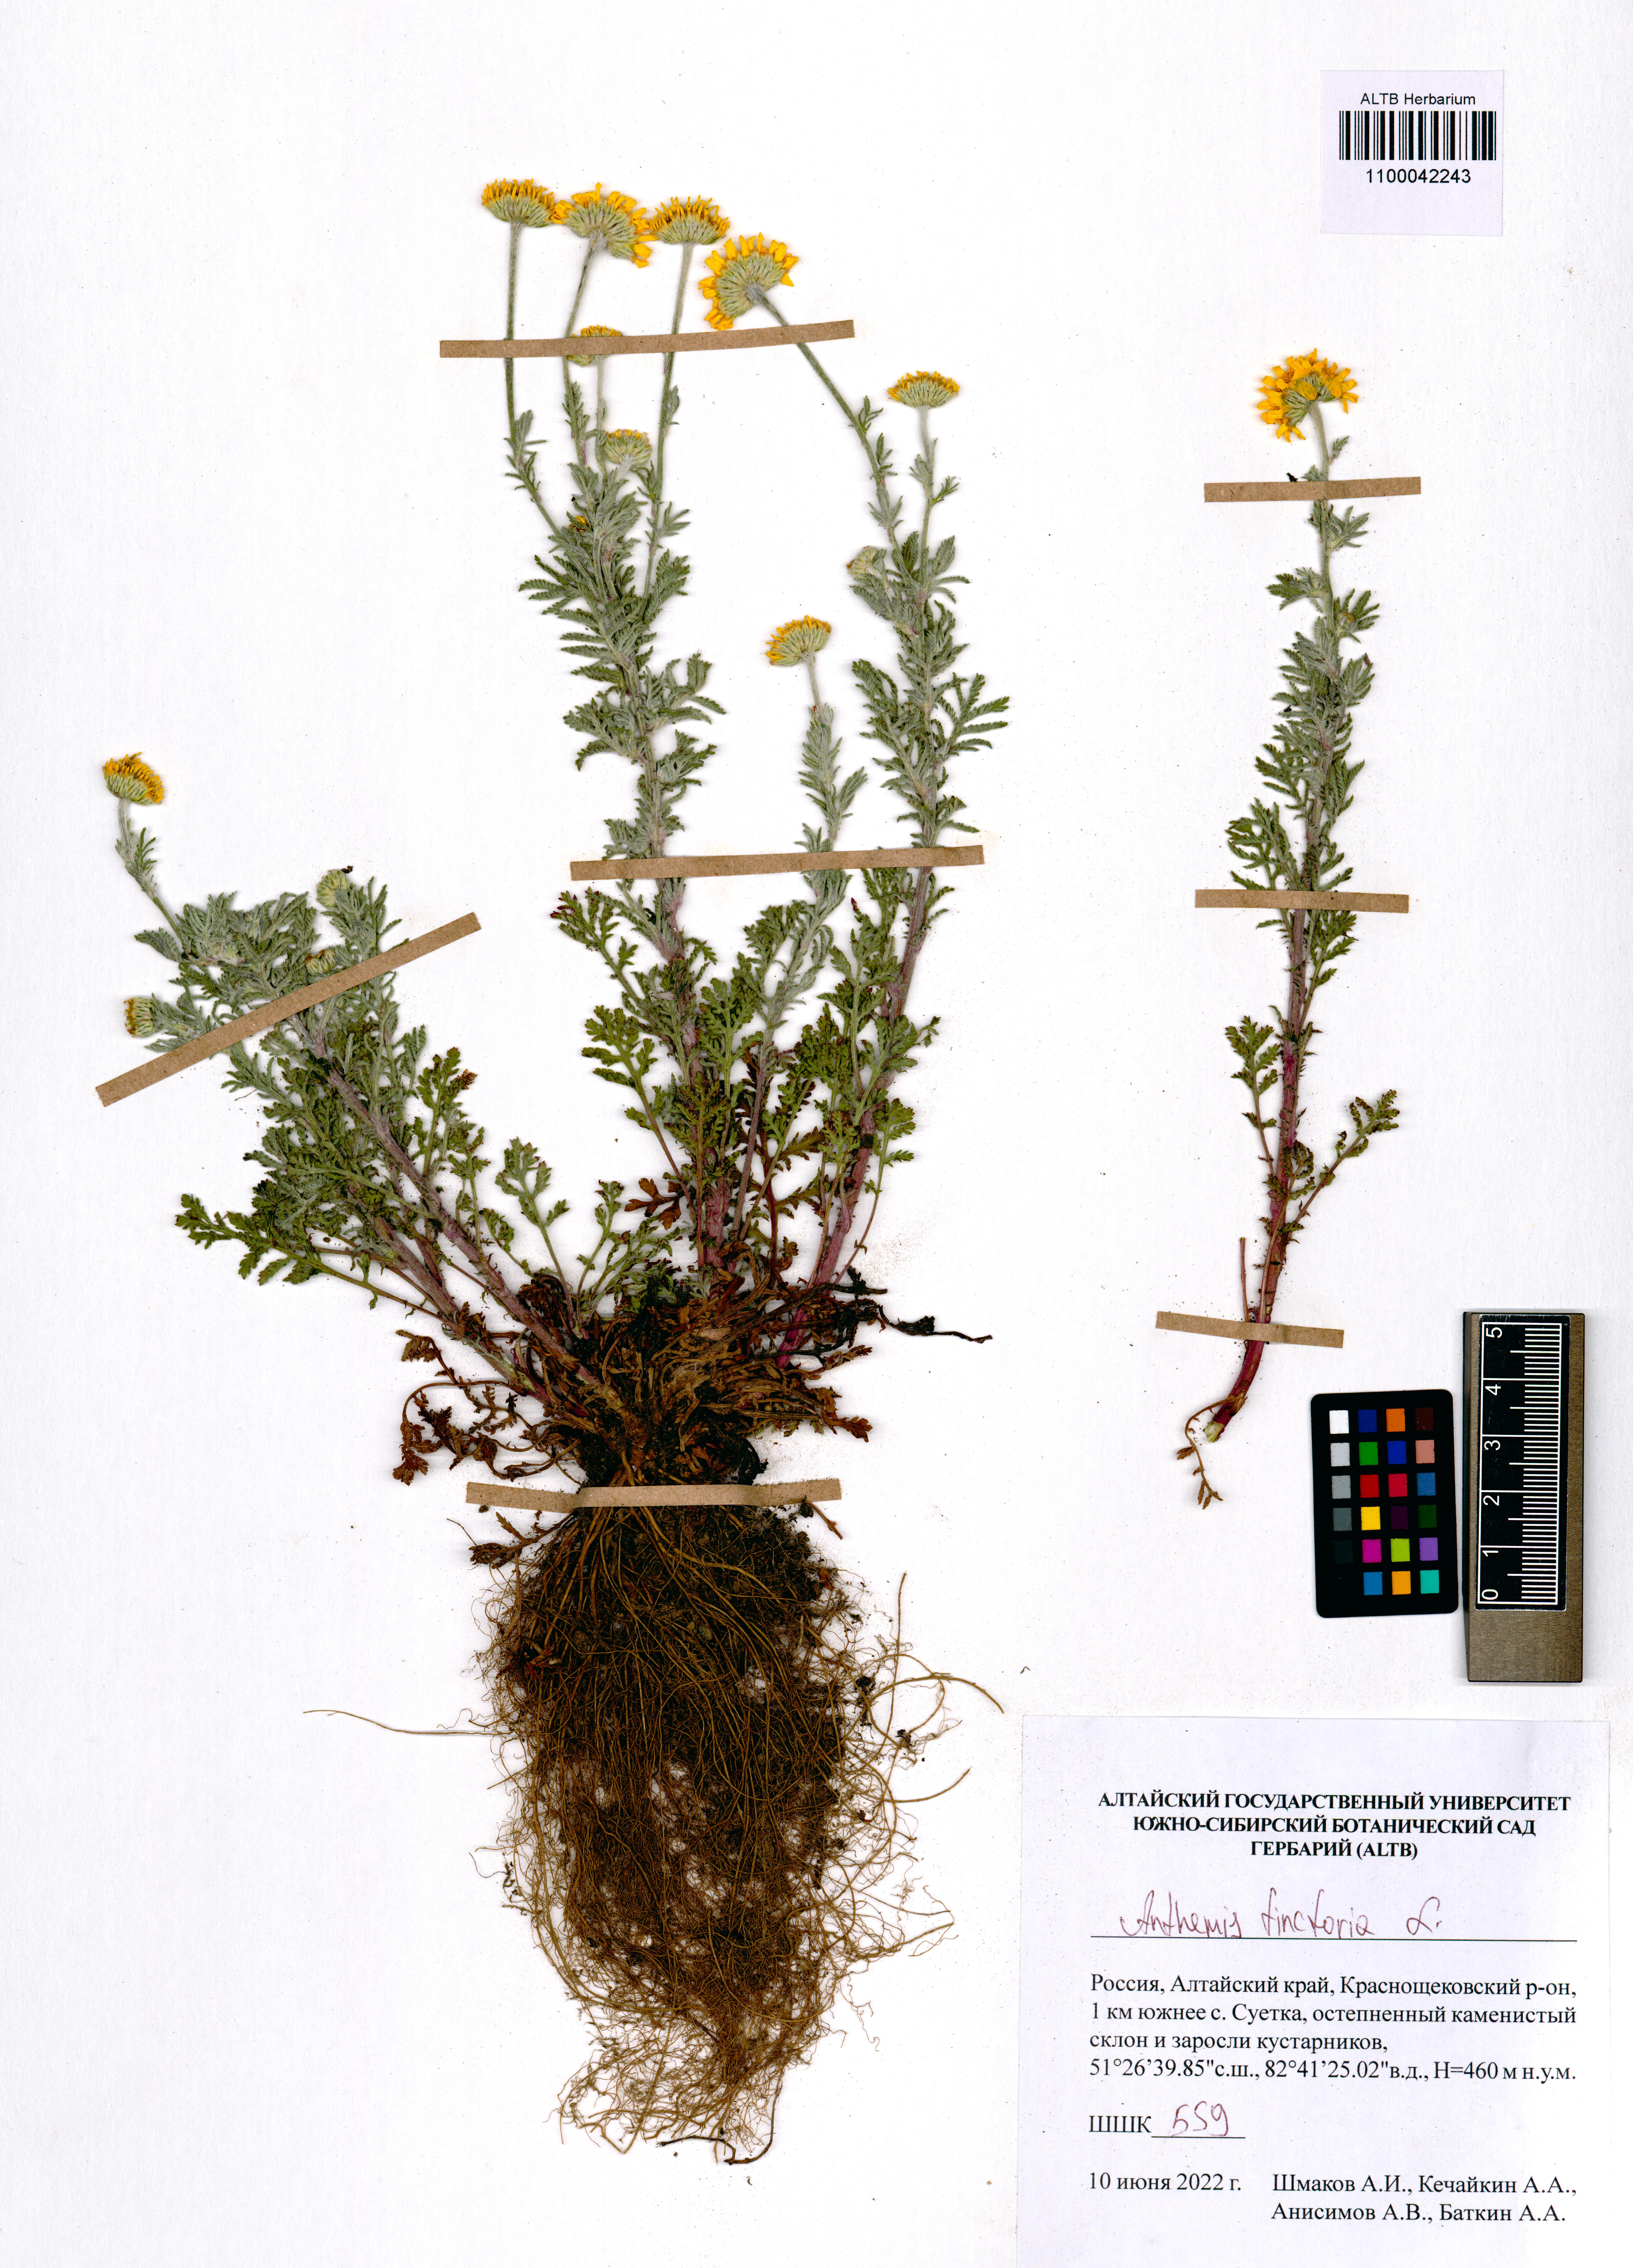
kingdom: Plantae
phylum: Tracheophyta
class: Magnoliopsida
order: Asterales
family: Asteraceae
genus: Cota
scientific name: Cota tinctoria
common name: Golden chamomile
